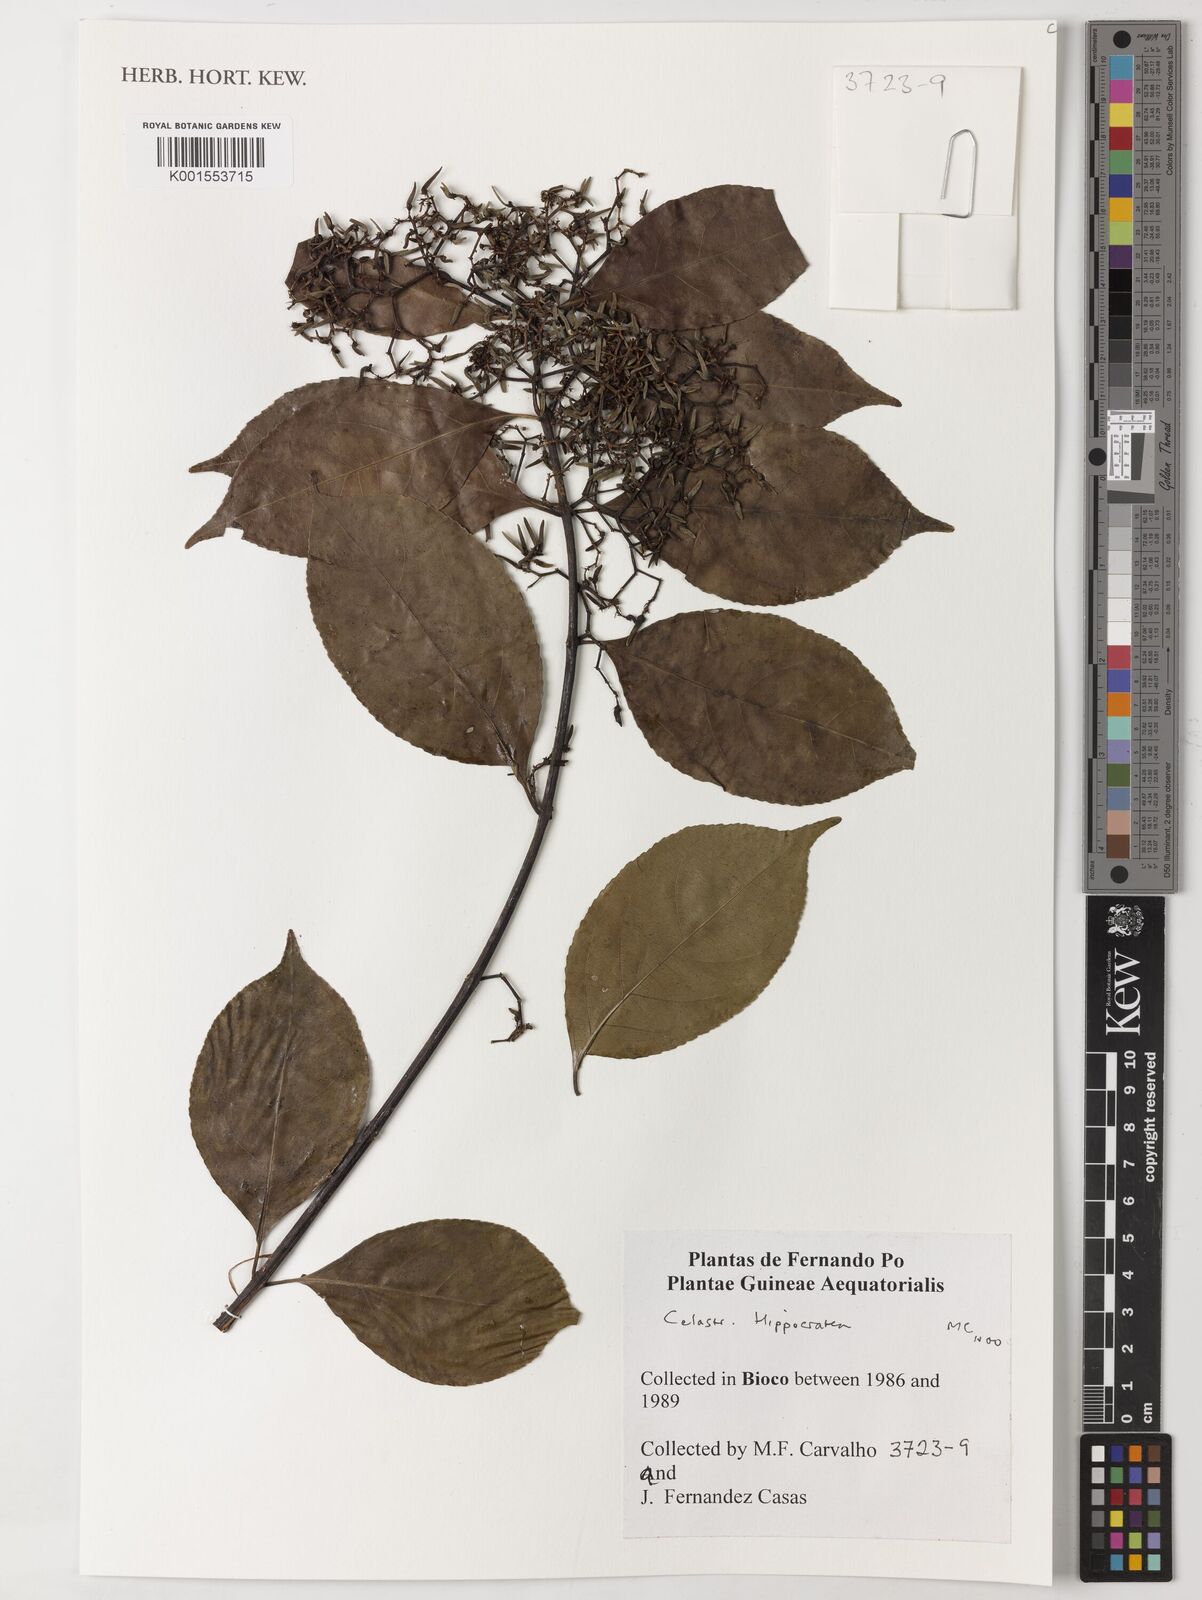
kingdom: Plantae
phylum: Tracheophyta
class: Magnoliopsida
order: Celastrales
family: Celastraceae
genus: Hippocratea
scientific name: Hippocratea
